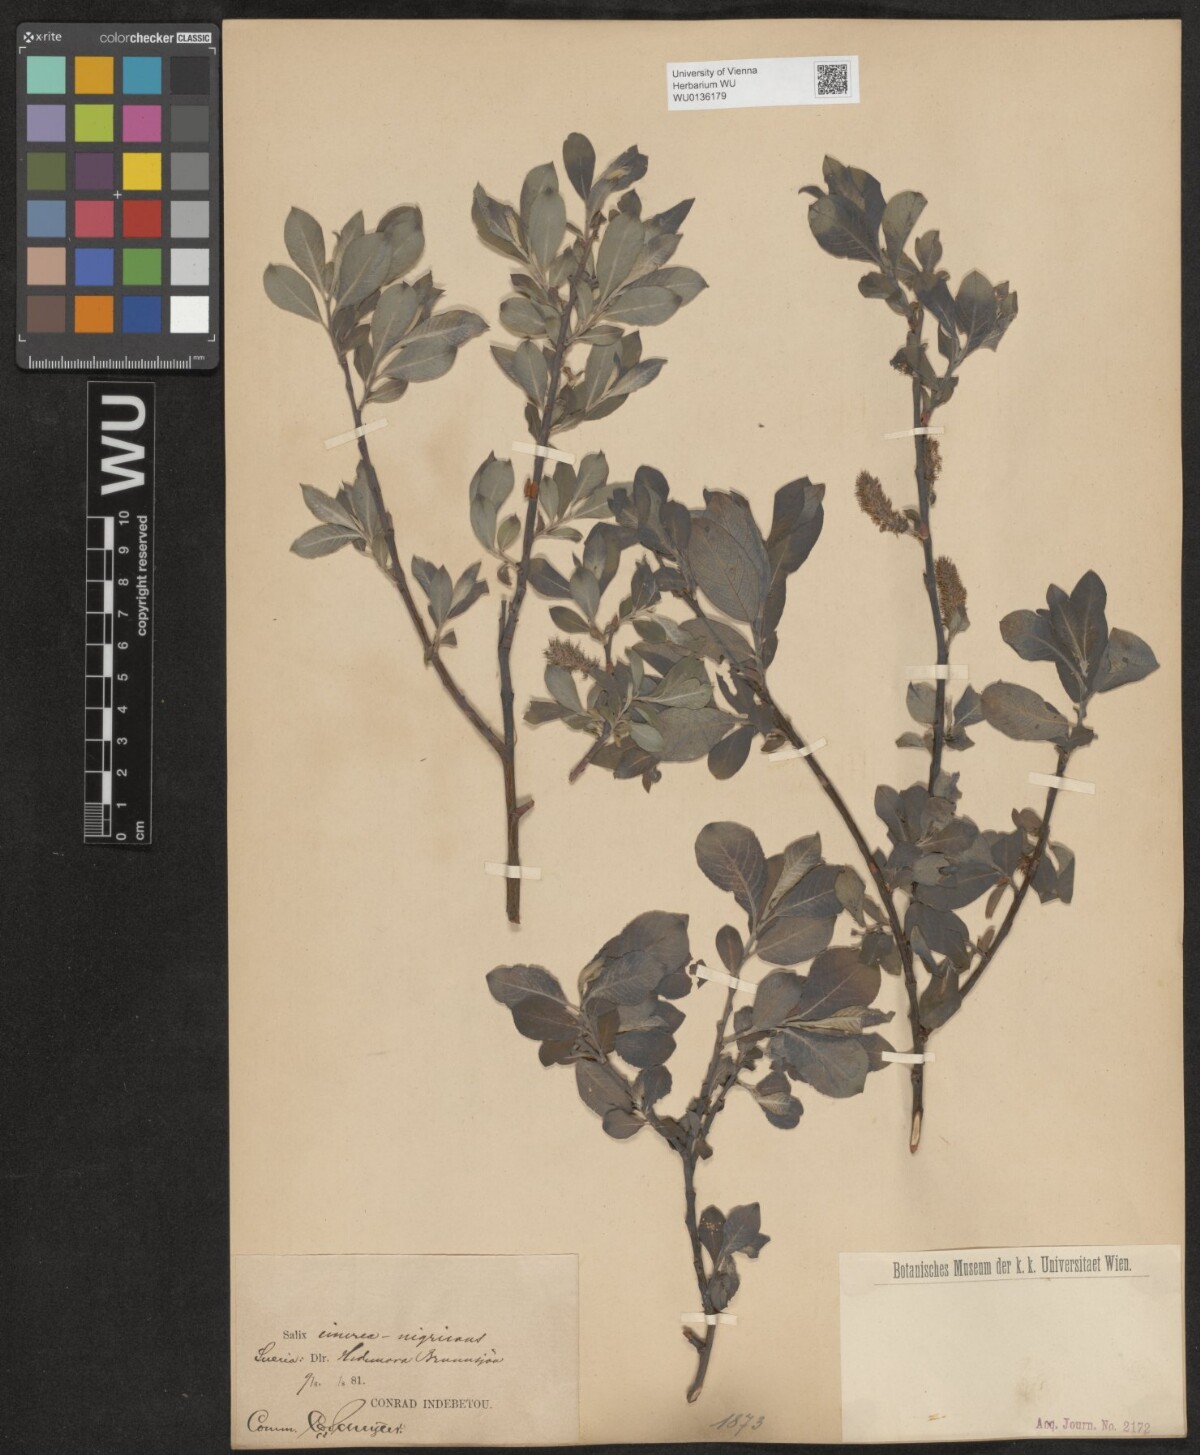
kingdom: Plantae
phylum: Tracheophyta
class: Magnoliopsida
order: Malpighiales
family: Salicaceae
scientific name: Salicaceae
